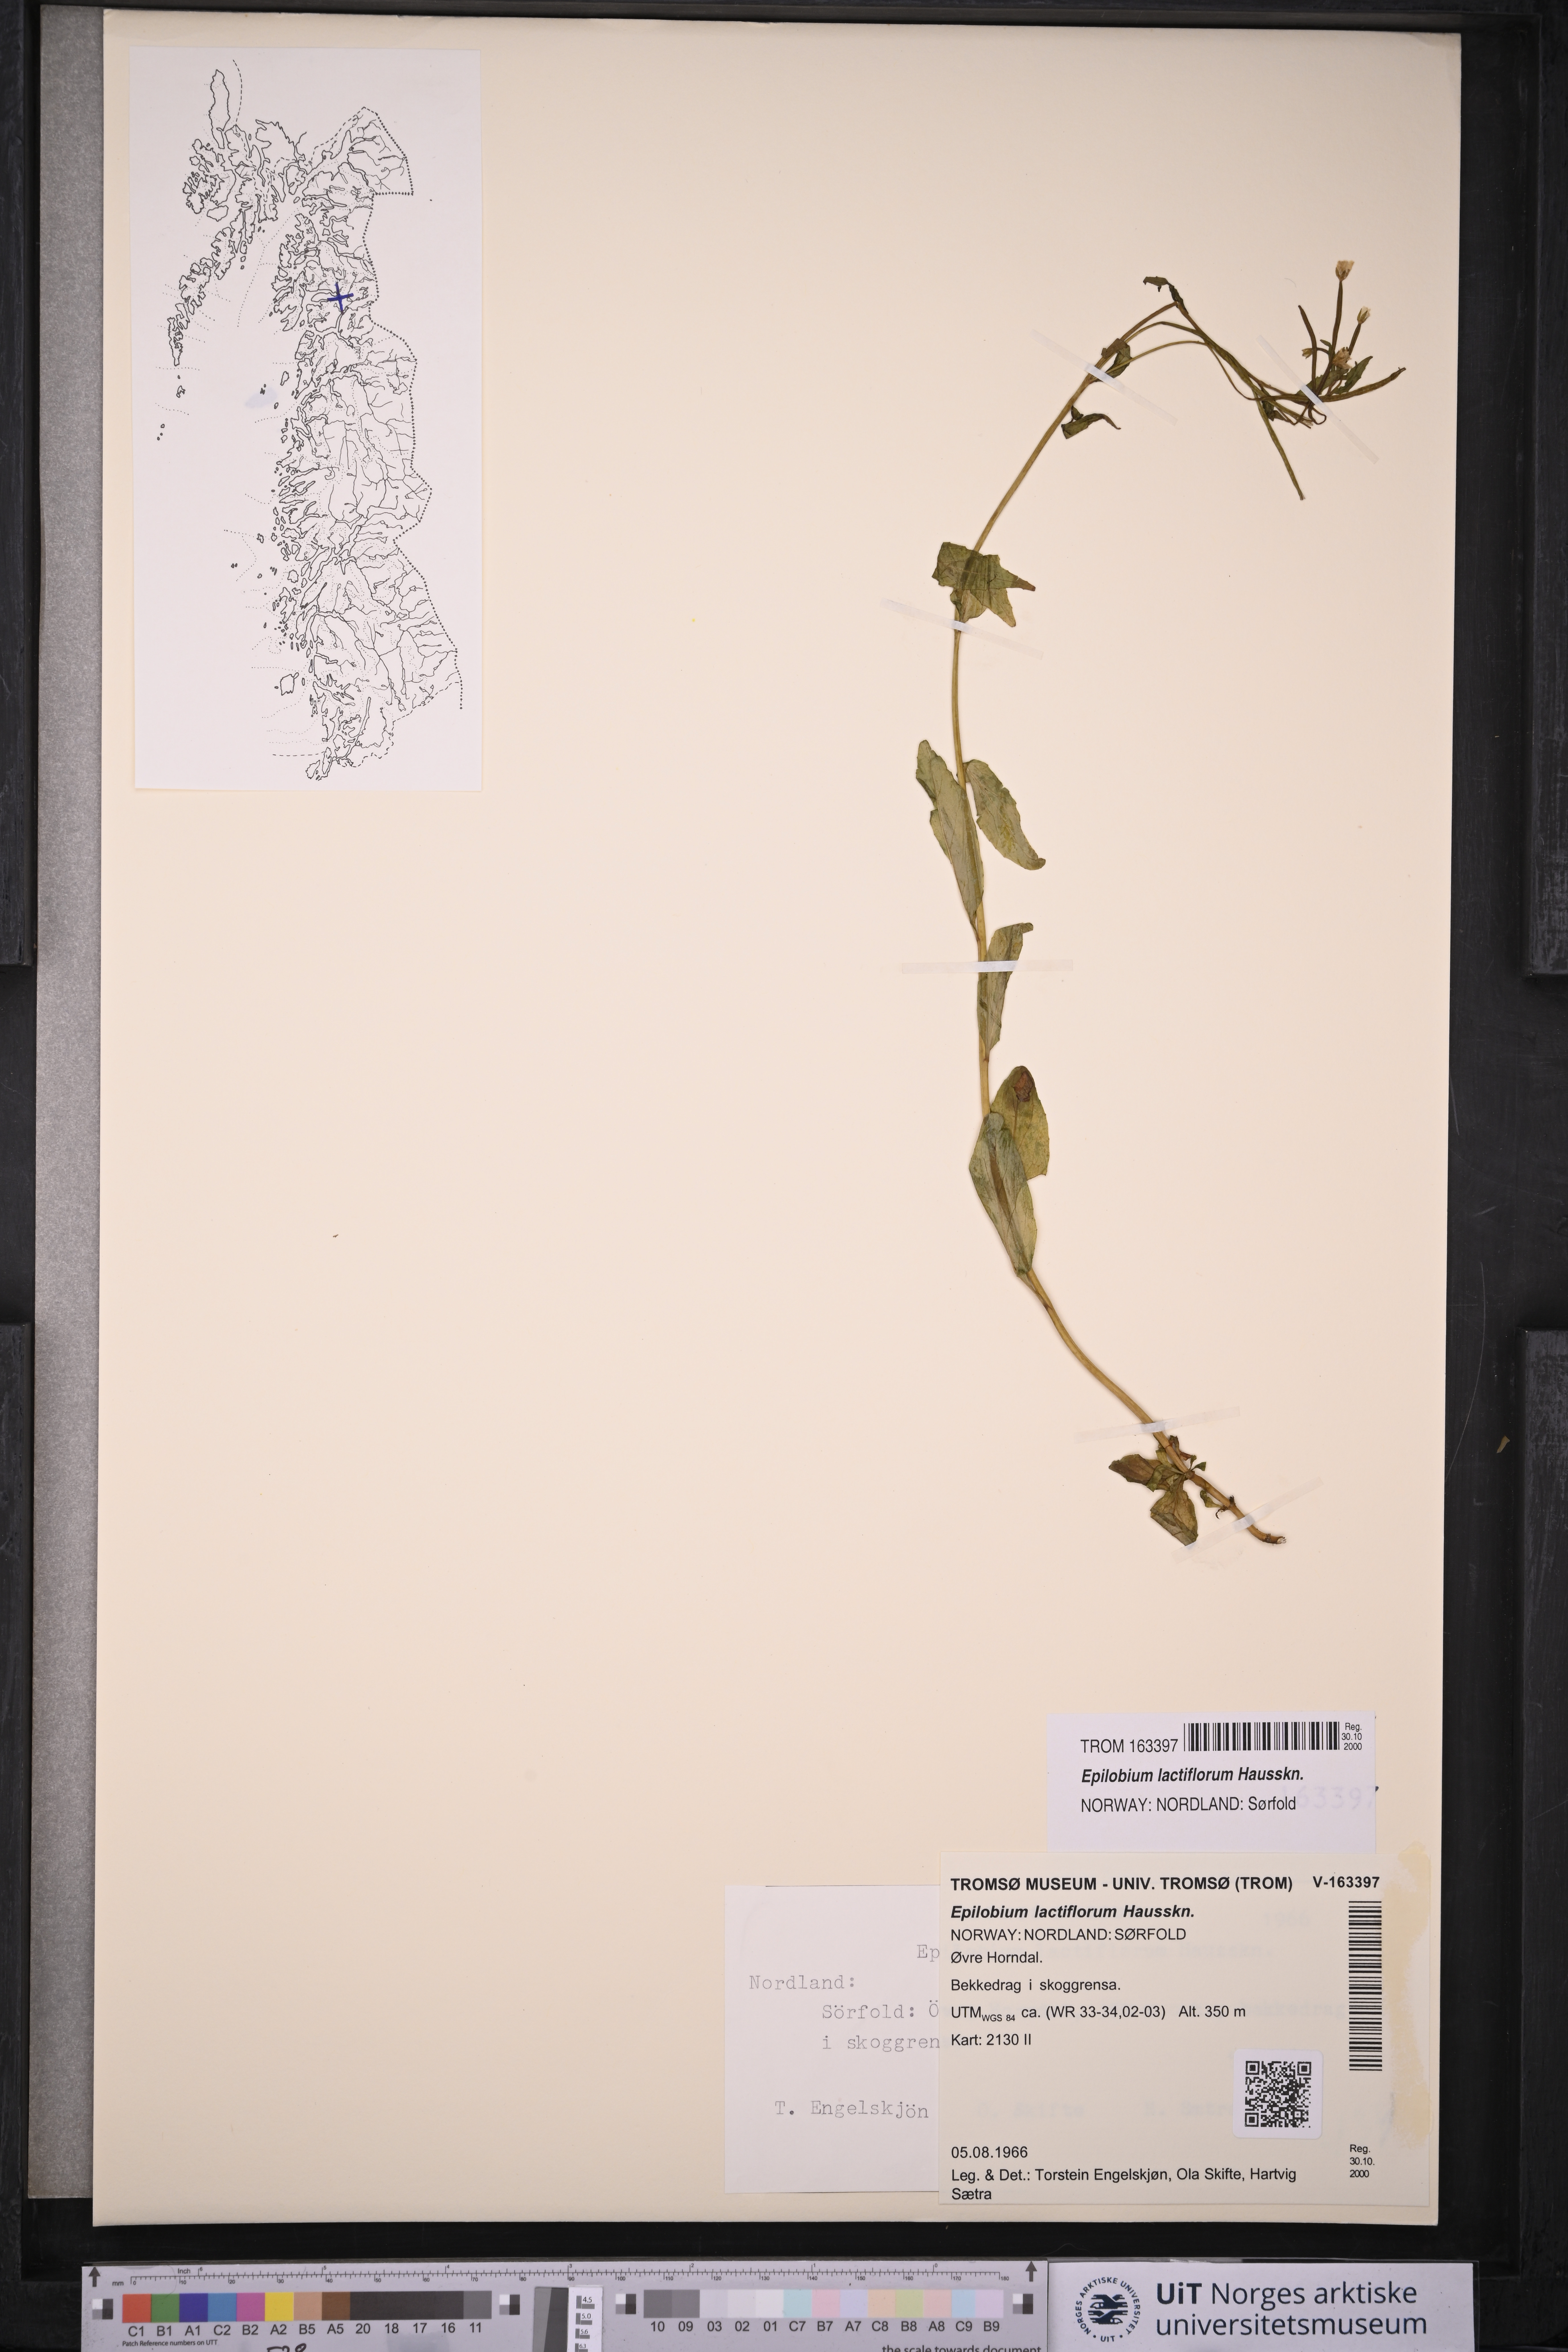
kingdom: Plantae
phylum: Tracheophyta
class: Magnoliopsida
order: Myrtales
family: Onagraceae
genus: Epilobium
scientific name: Epilobium lactiflorum
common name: Milkflower willowherb
